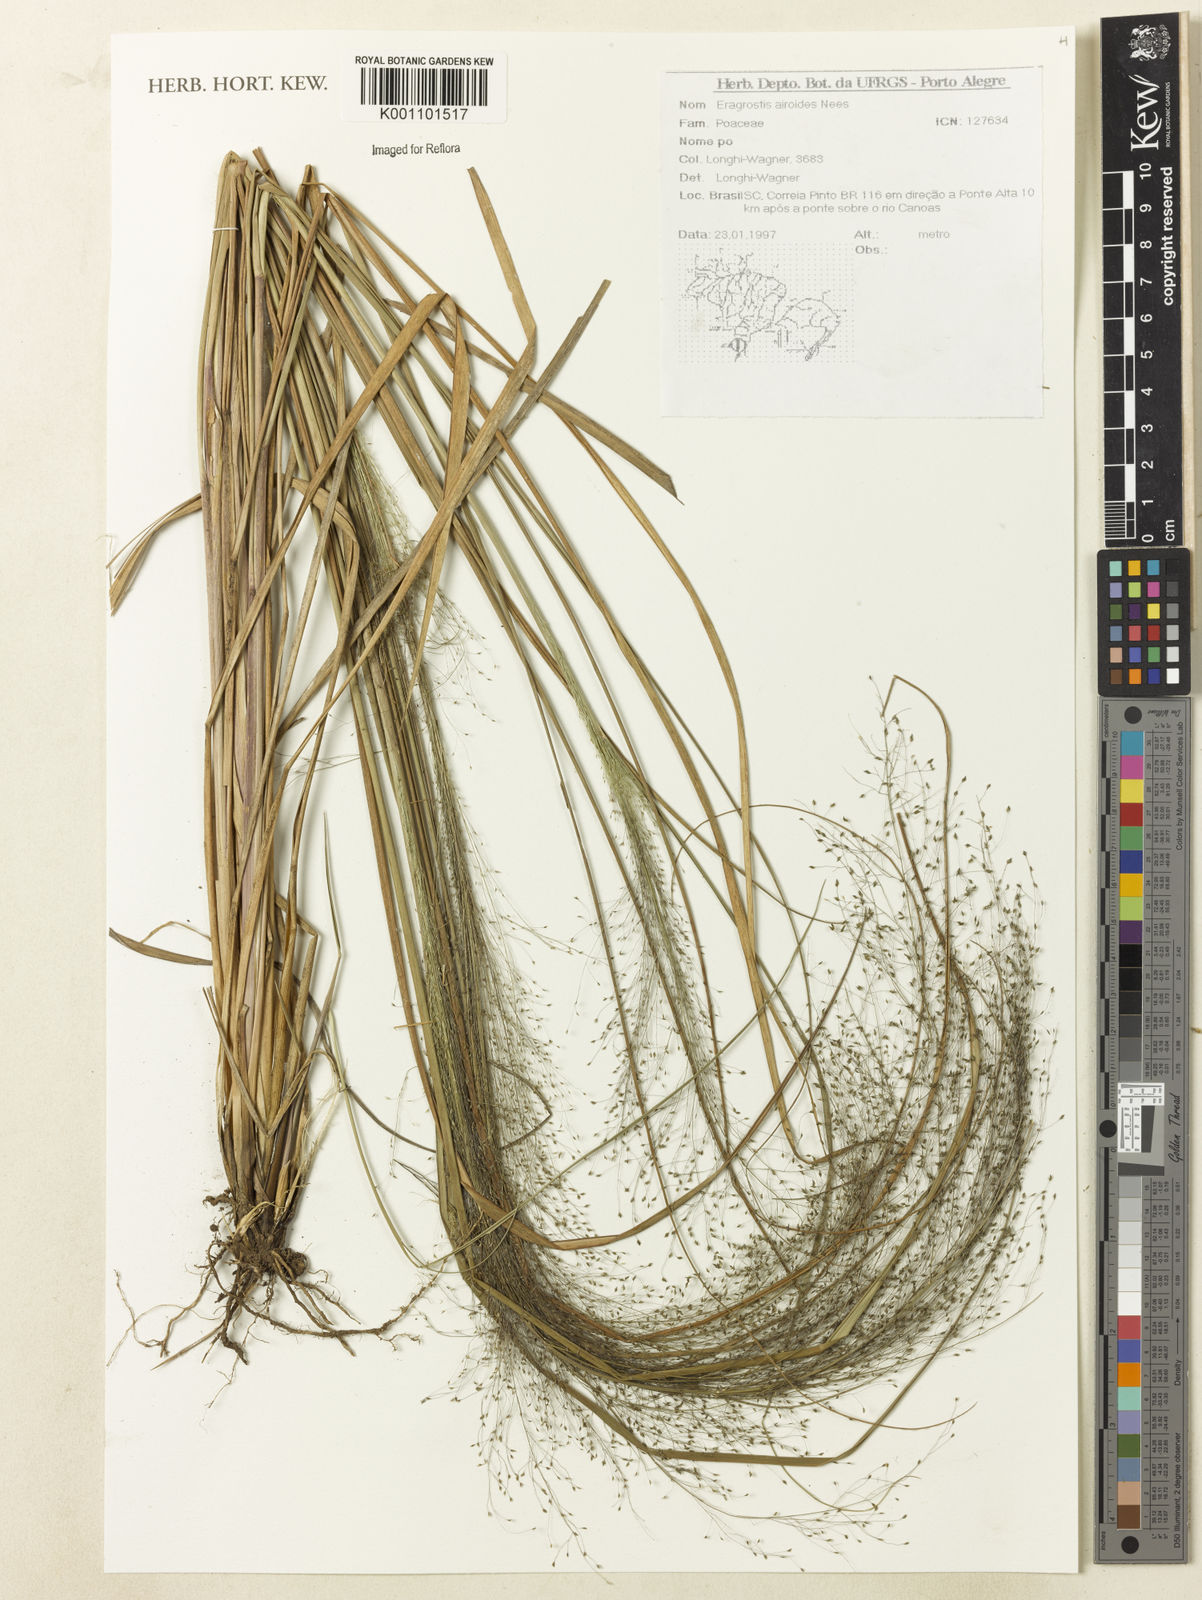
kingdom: Plantae
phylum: Tracheophyta
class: Liliopsida
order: Poales
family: Poaceae
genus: Eragrostis
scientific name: Eragrostis airoides
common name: Darnel lovegrass
